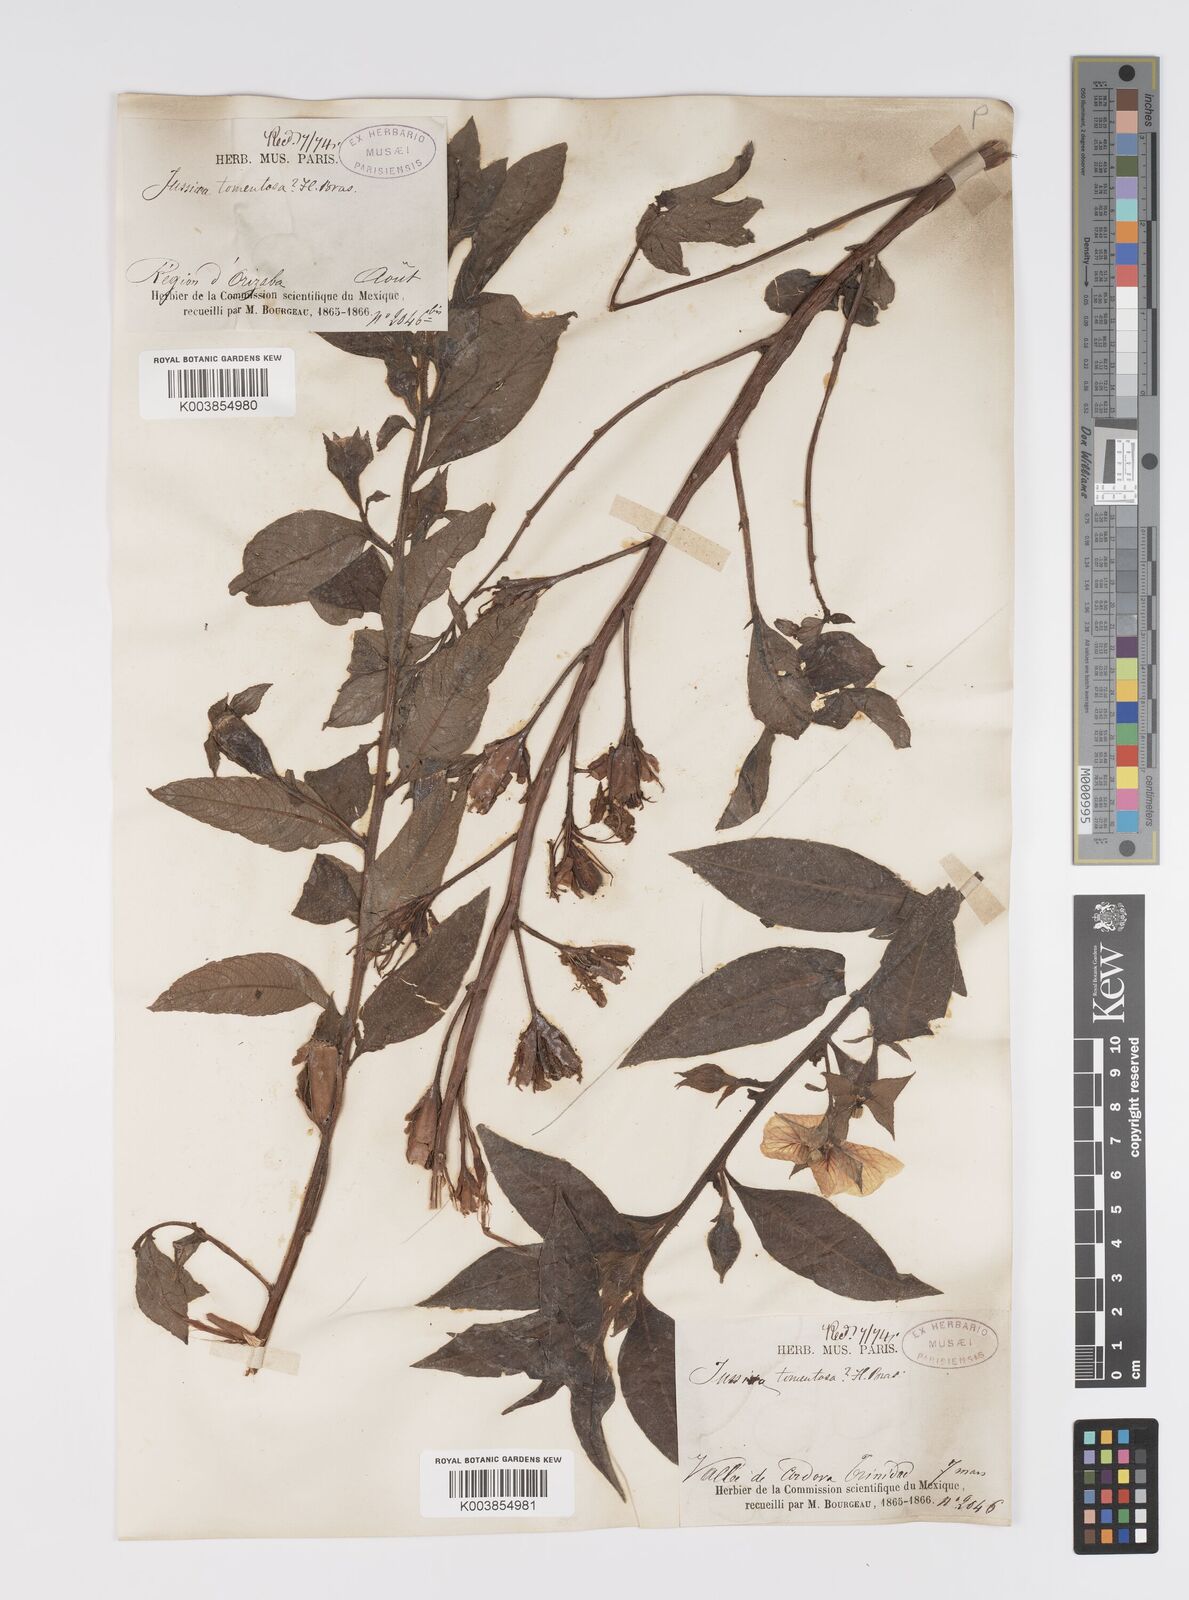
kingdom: Plantae
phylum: Tracheophyta
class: Magnoliopsida
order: Myrtales
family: Onagraceae
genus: Ludwigia
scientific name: Ludwigia peruviana
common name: Peruvian primrose-willow
